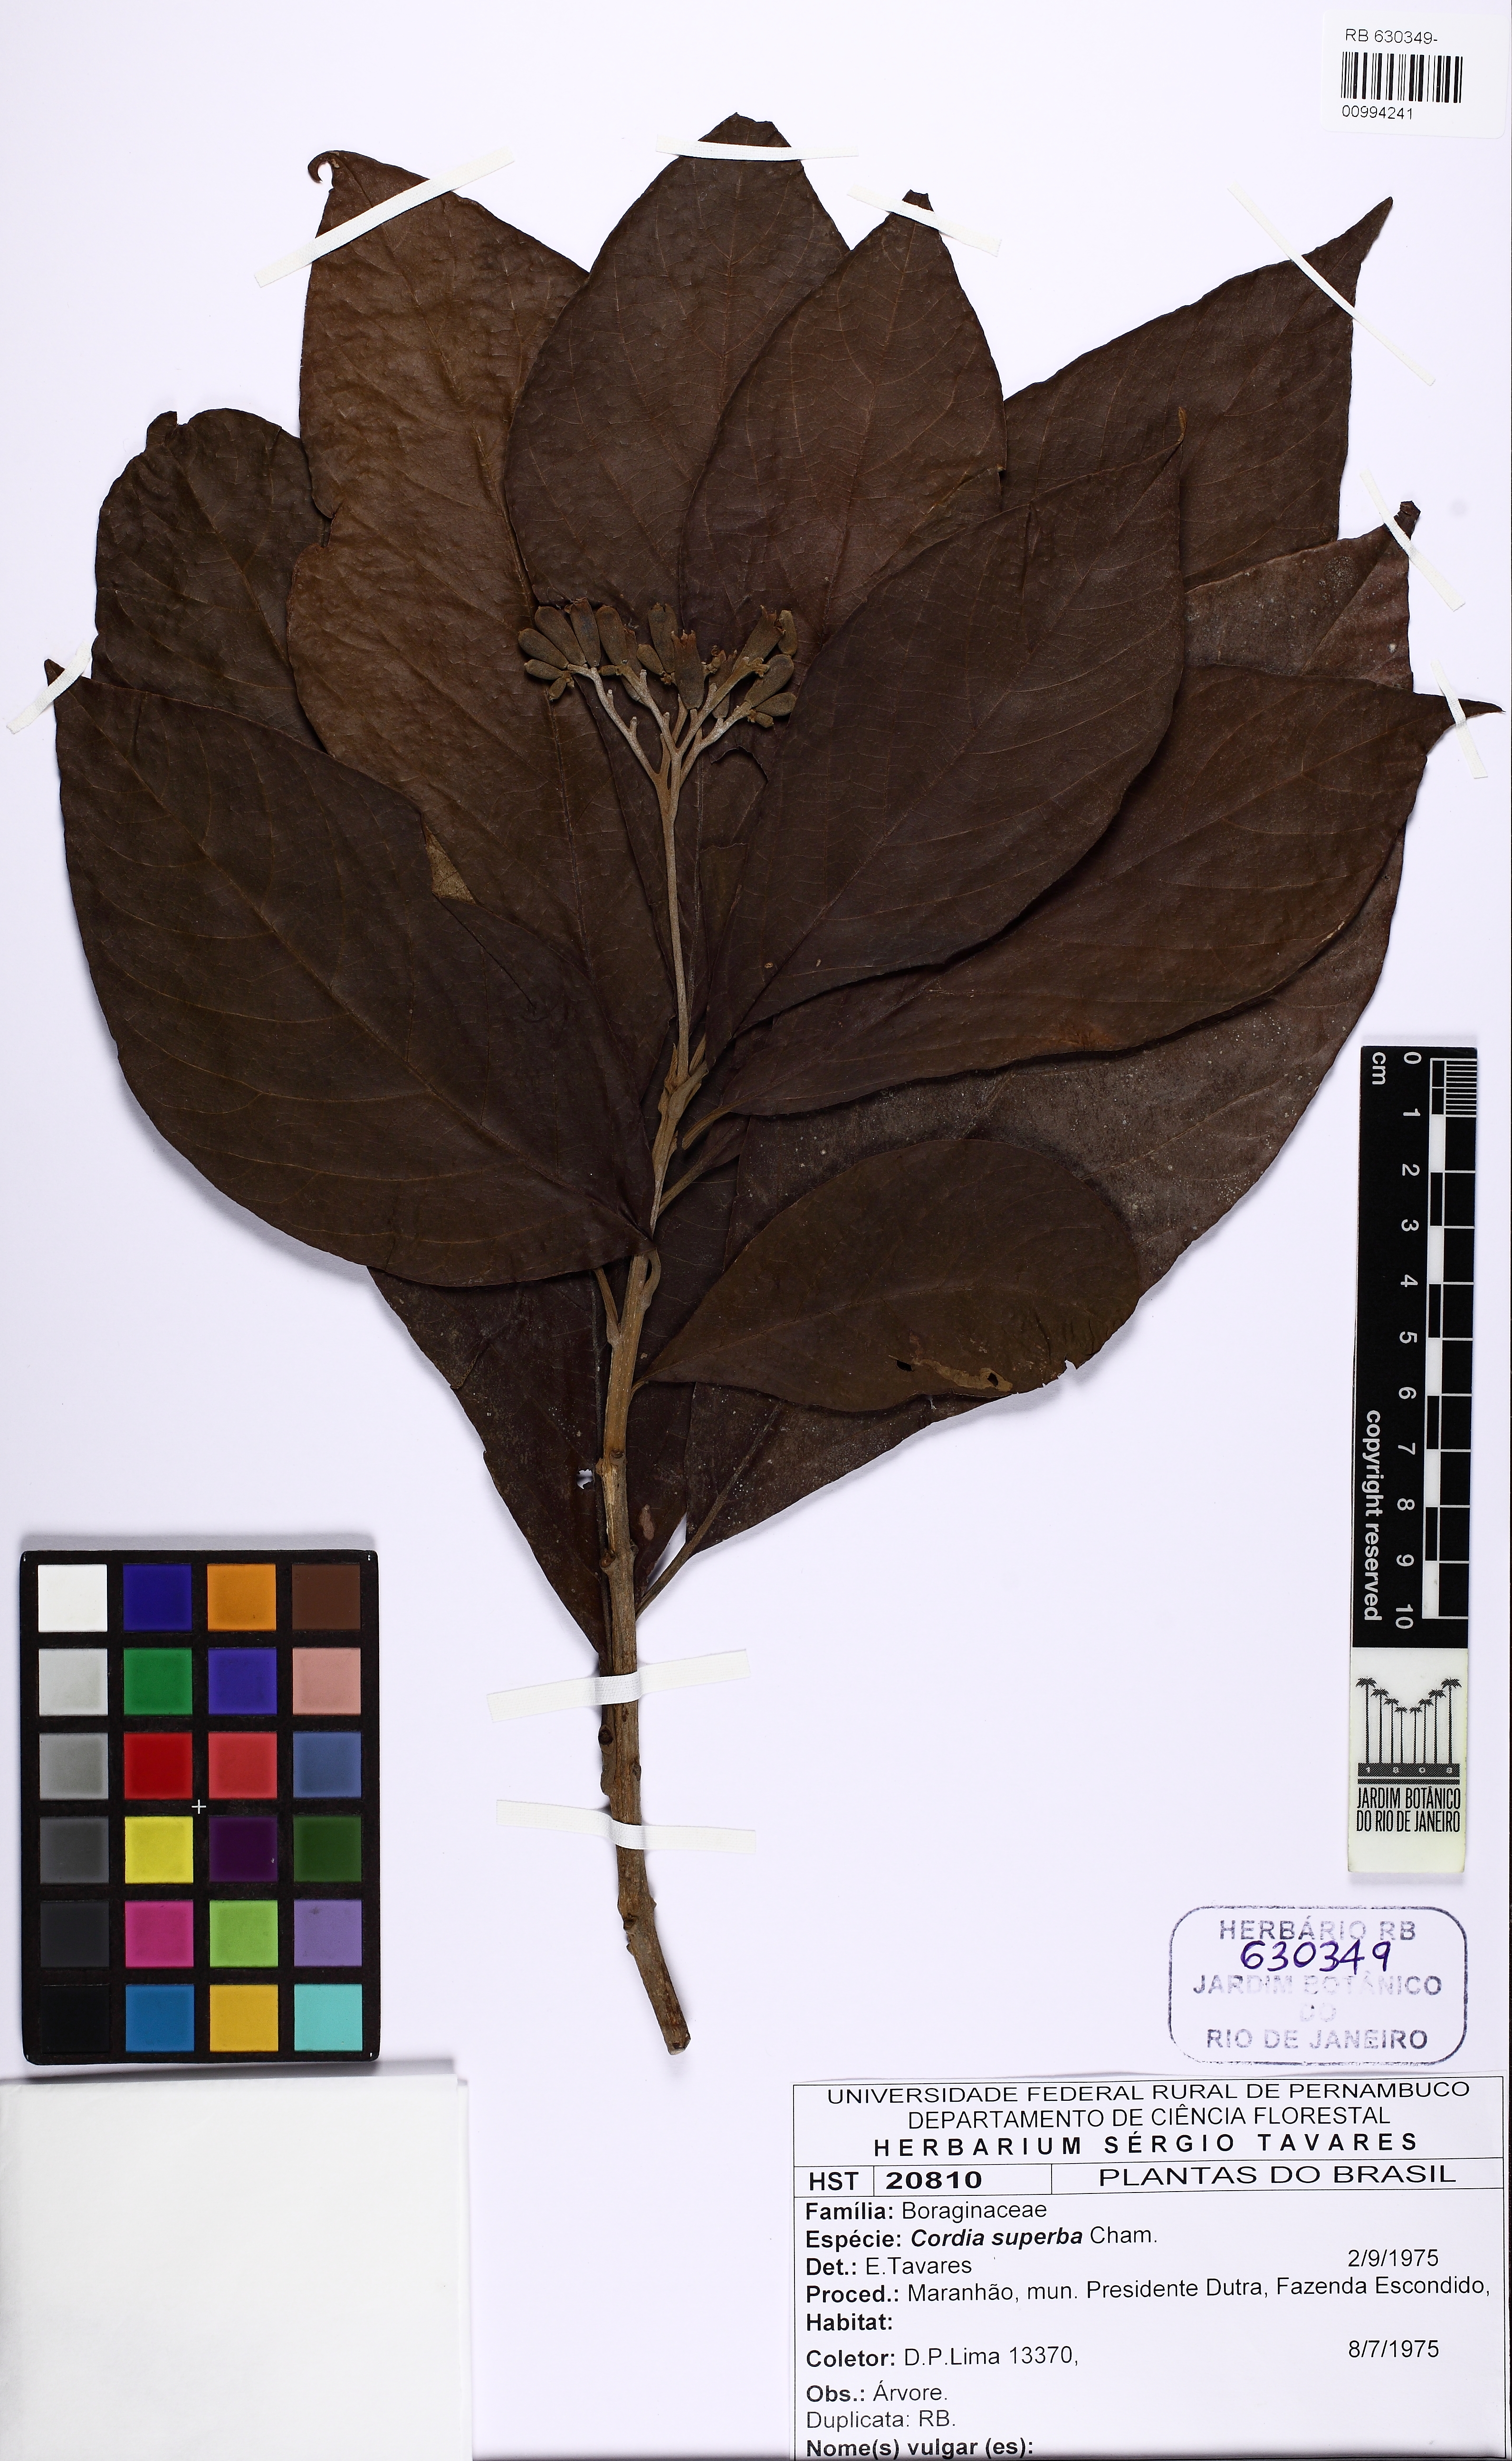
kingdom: Plantae
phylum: Tracheophyta
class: Magnoliopsida
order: Boraginales
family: Cordiaceae
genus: Cordia
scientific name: Cordia superba
